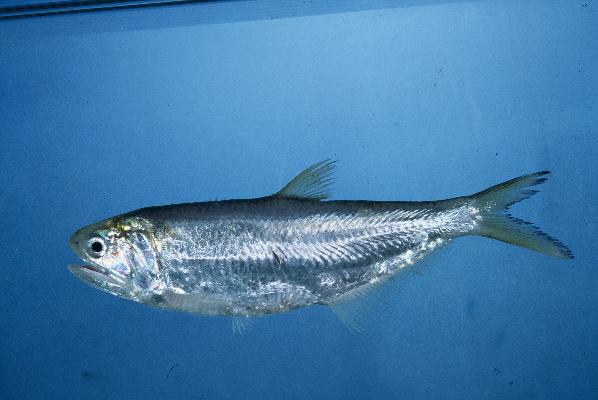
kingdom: Animalia
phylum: Chordata
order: Clupeiformes
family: Engraulidae
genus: Thryssa
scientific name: Thryssa vitrirostris
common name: Orangemouth anchovy
